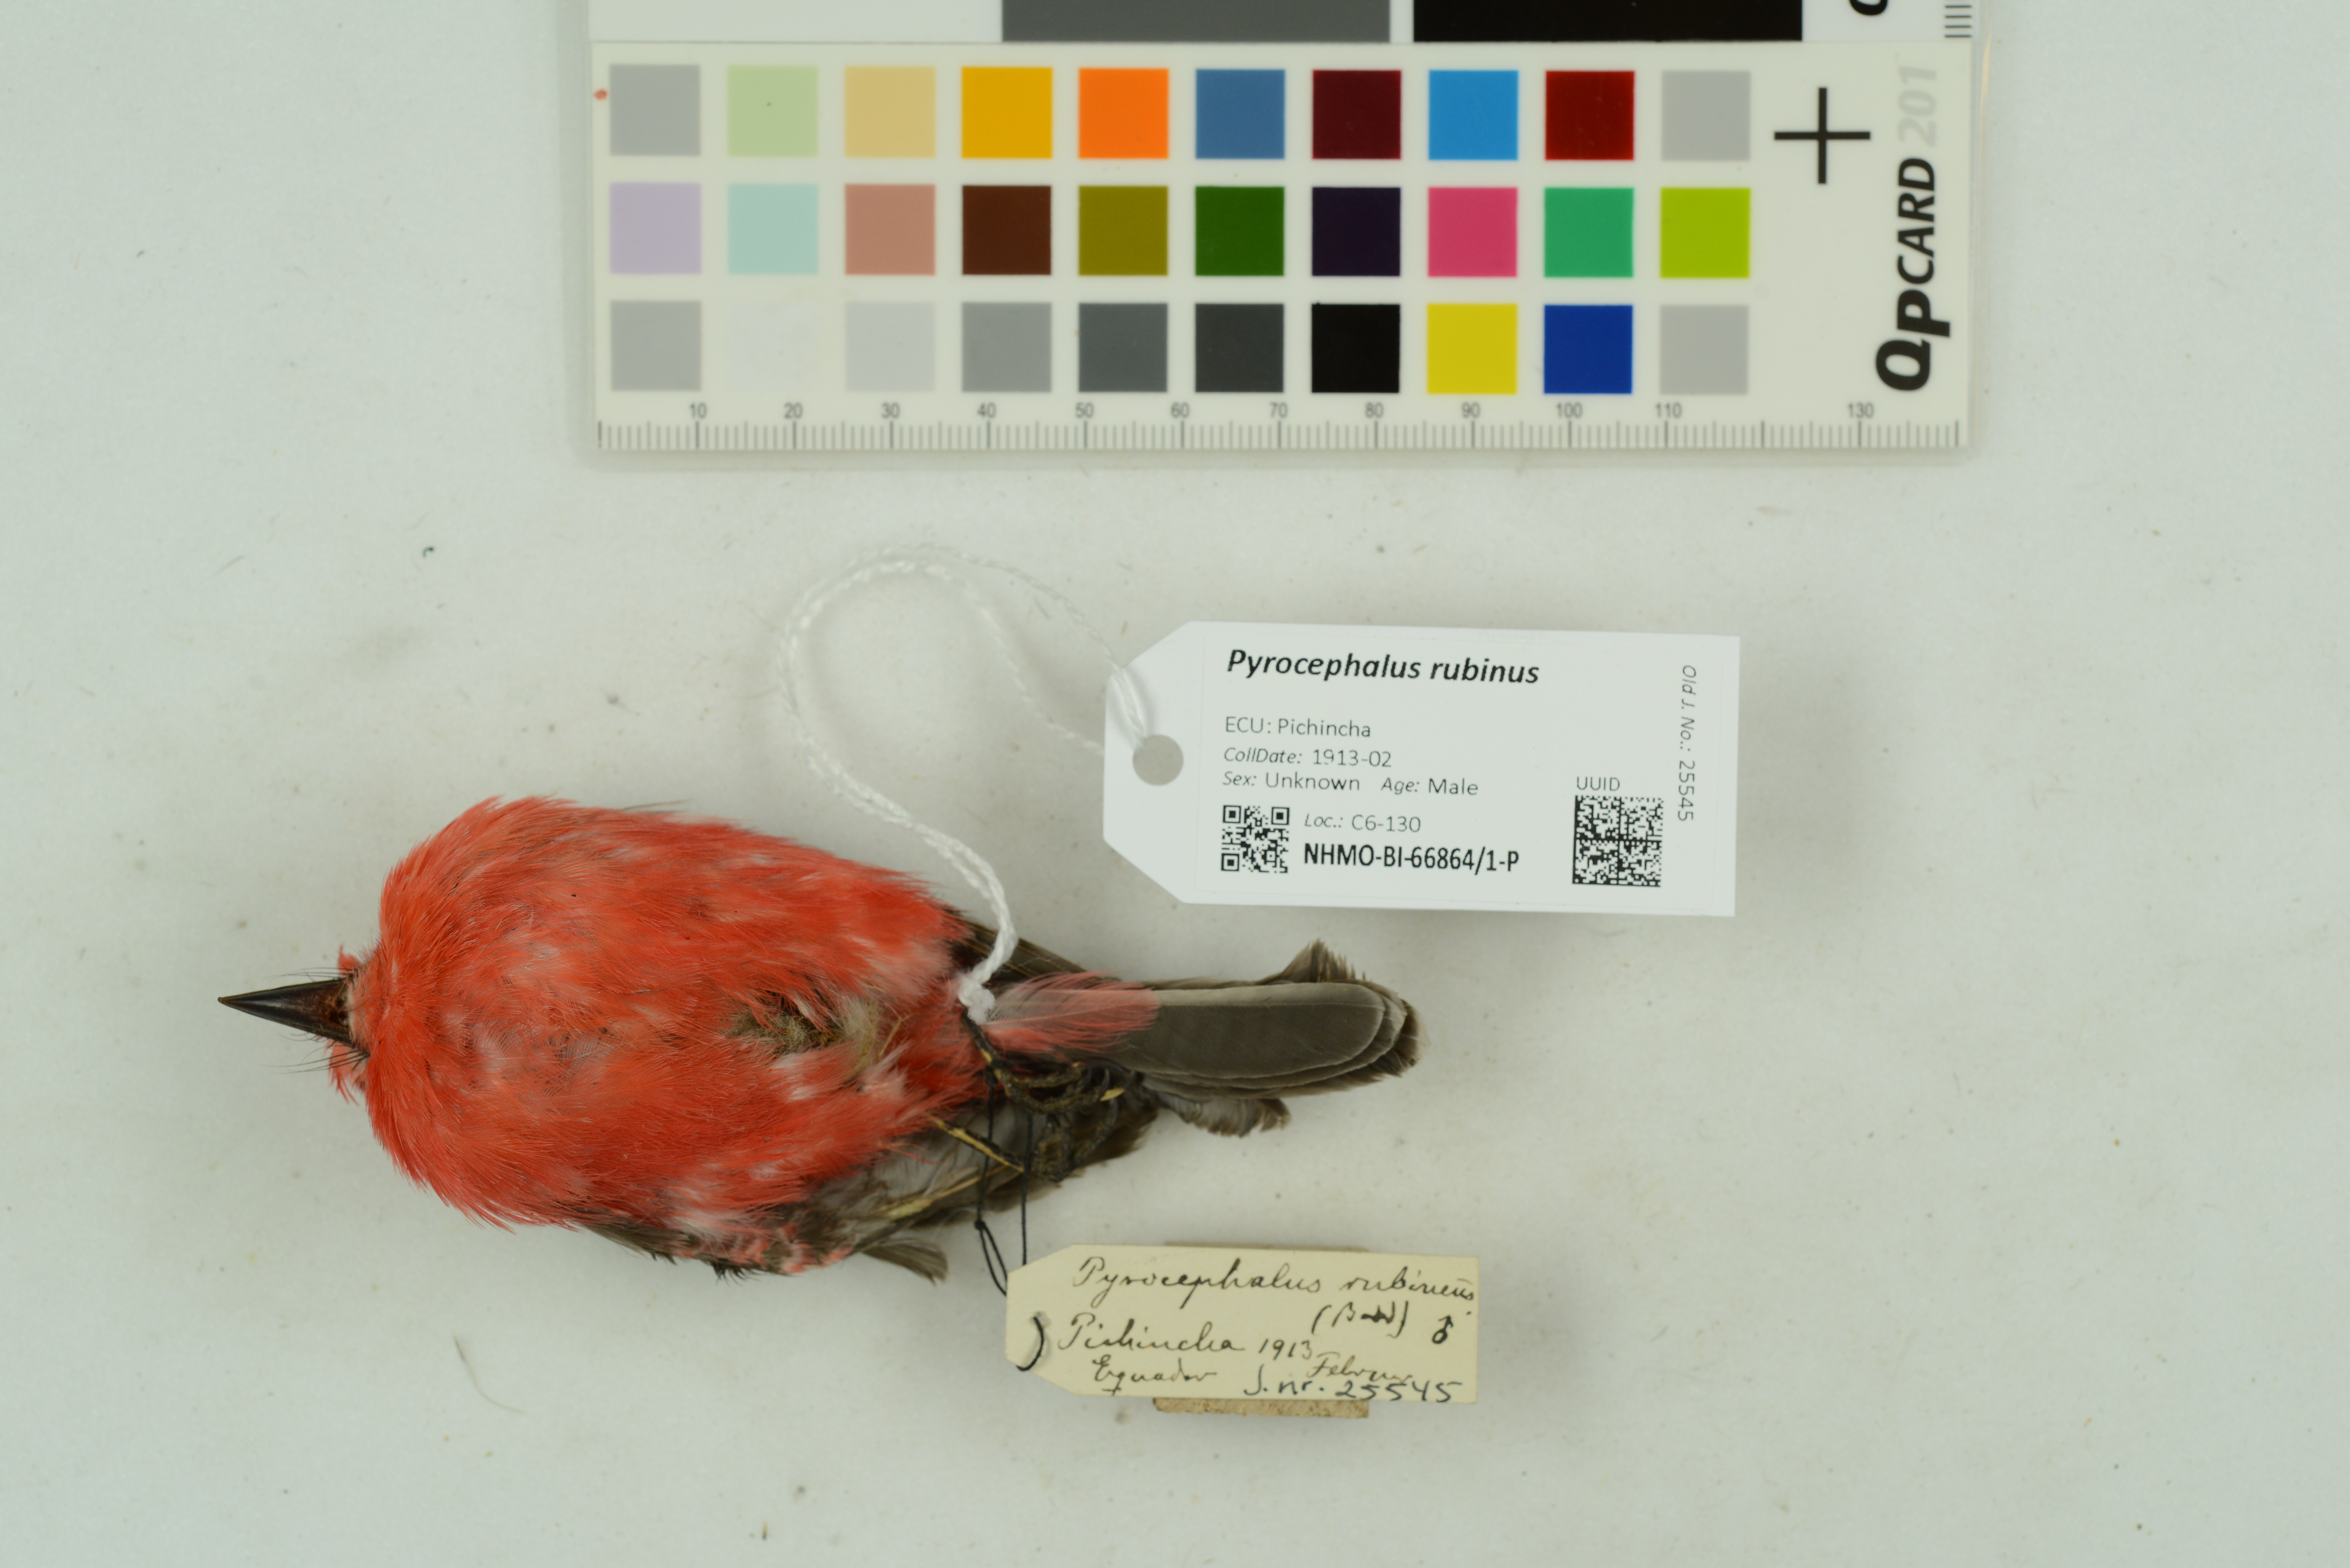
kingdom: Animalia
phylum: Chordata
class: Aves
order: Passeriformes
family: Tyrannidae
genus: Pyrocephalus
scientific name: Pyrocephalus obscurus
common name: Vermilion flycatcher
